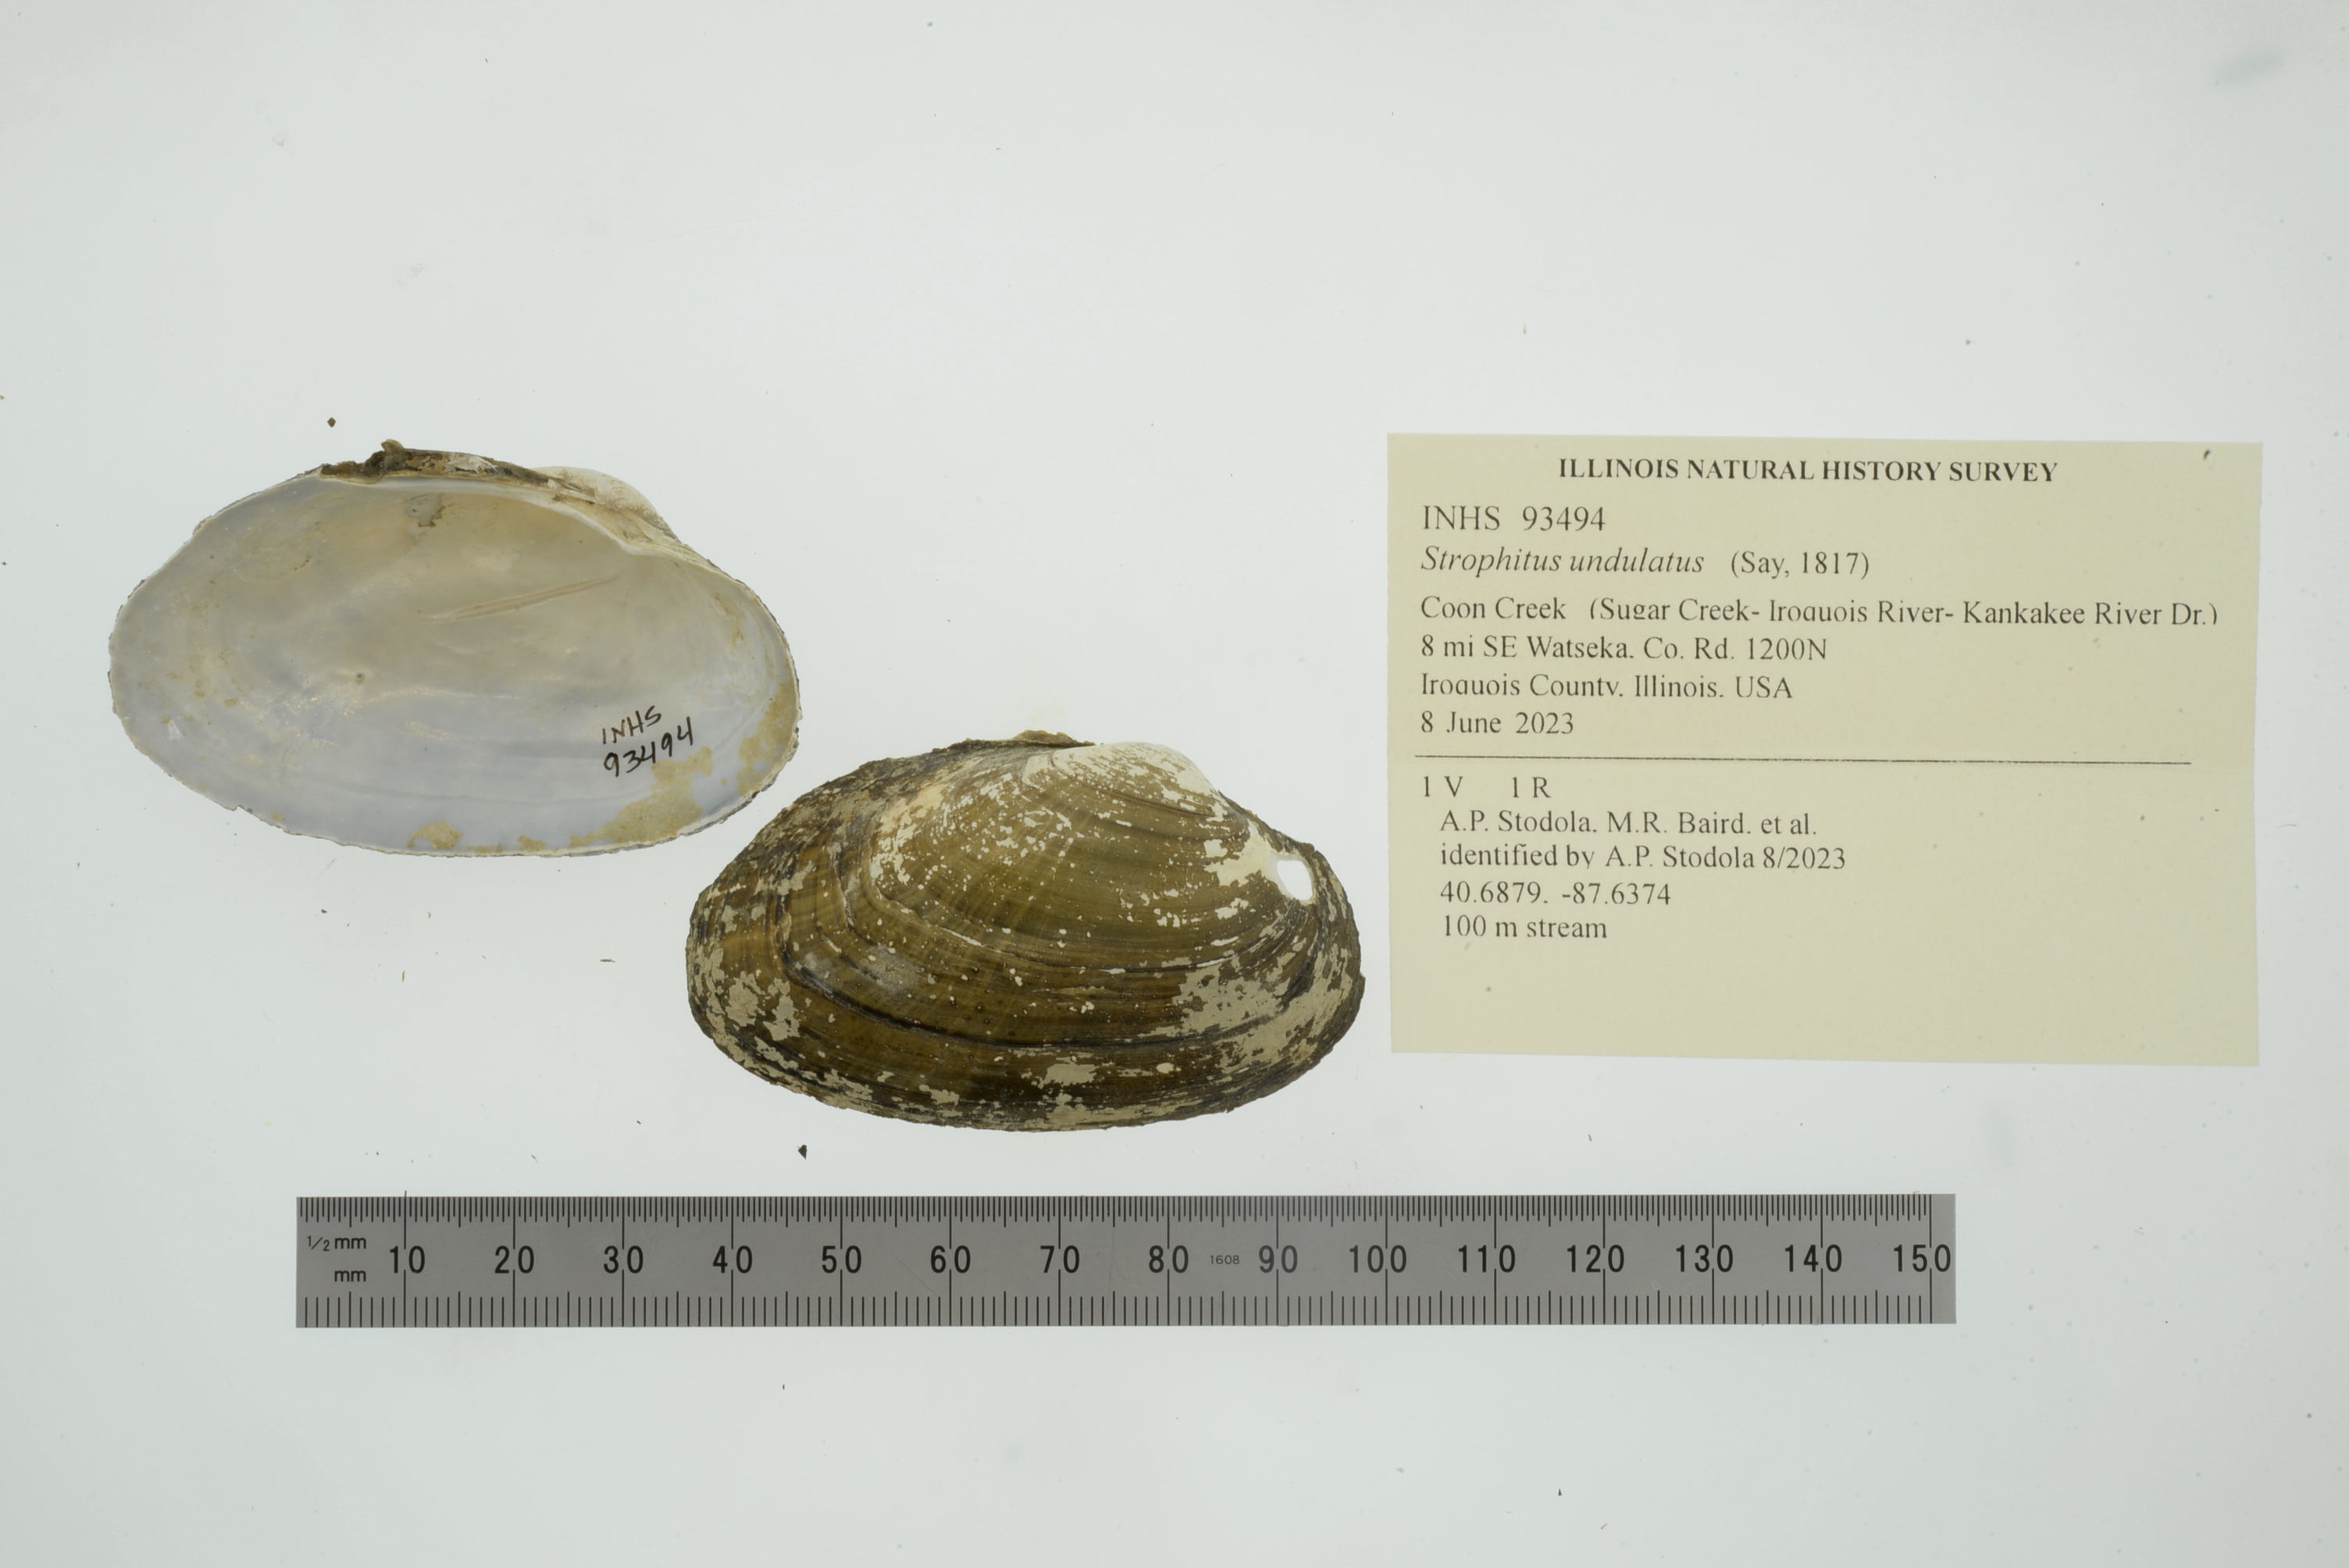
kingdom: Animalia
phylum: Mollusca
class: Bivalvia
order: Unionida
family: Unionidae
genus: Strophitus
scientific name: Strophitus undulatus
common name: Creeper
